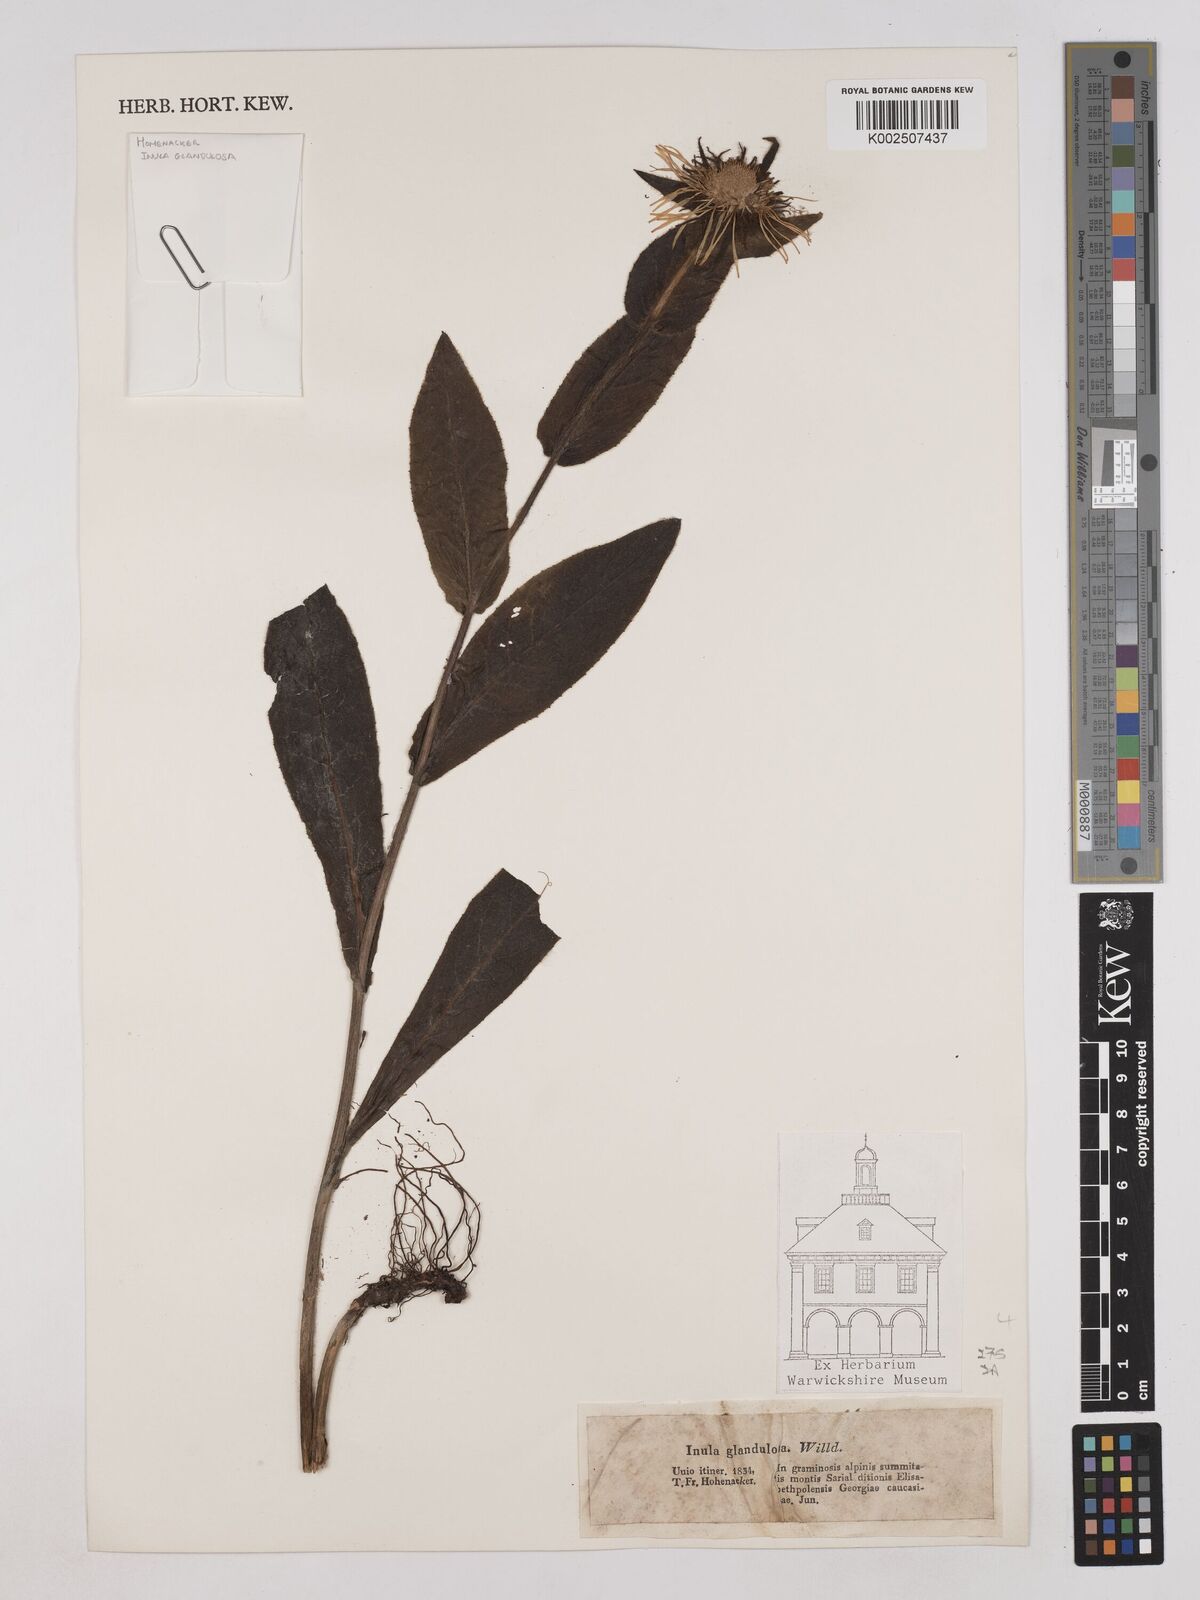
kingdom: Plantae
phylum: Tracheophyta
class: Magnoliopsida
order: Asterales
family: Asteraceae
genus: Pentanema
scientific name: Pentanema orientale
